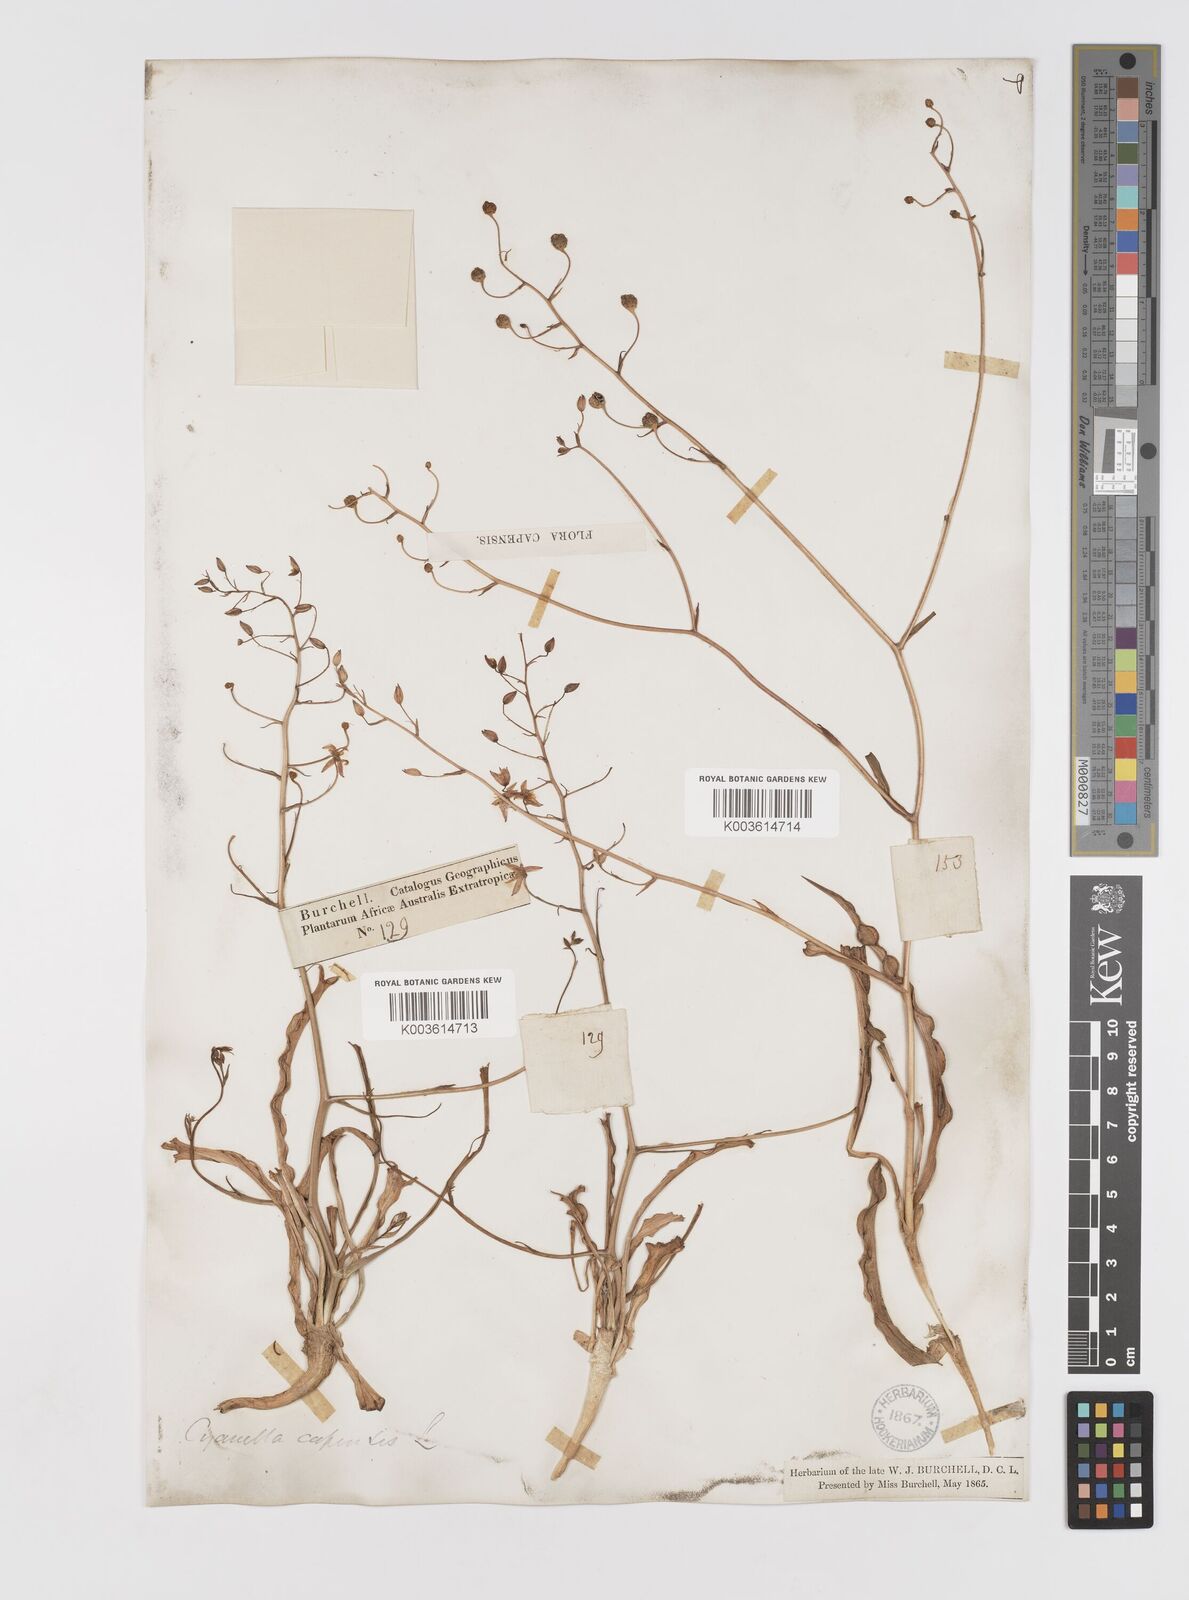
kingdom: Plantae
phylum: Tracheophyta
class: Liliopsida
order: Asparagales
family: Tecophilaeaceae
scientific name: Tecophilaeaceae
